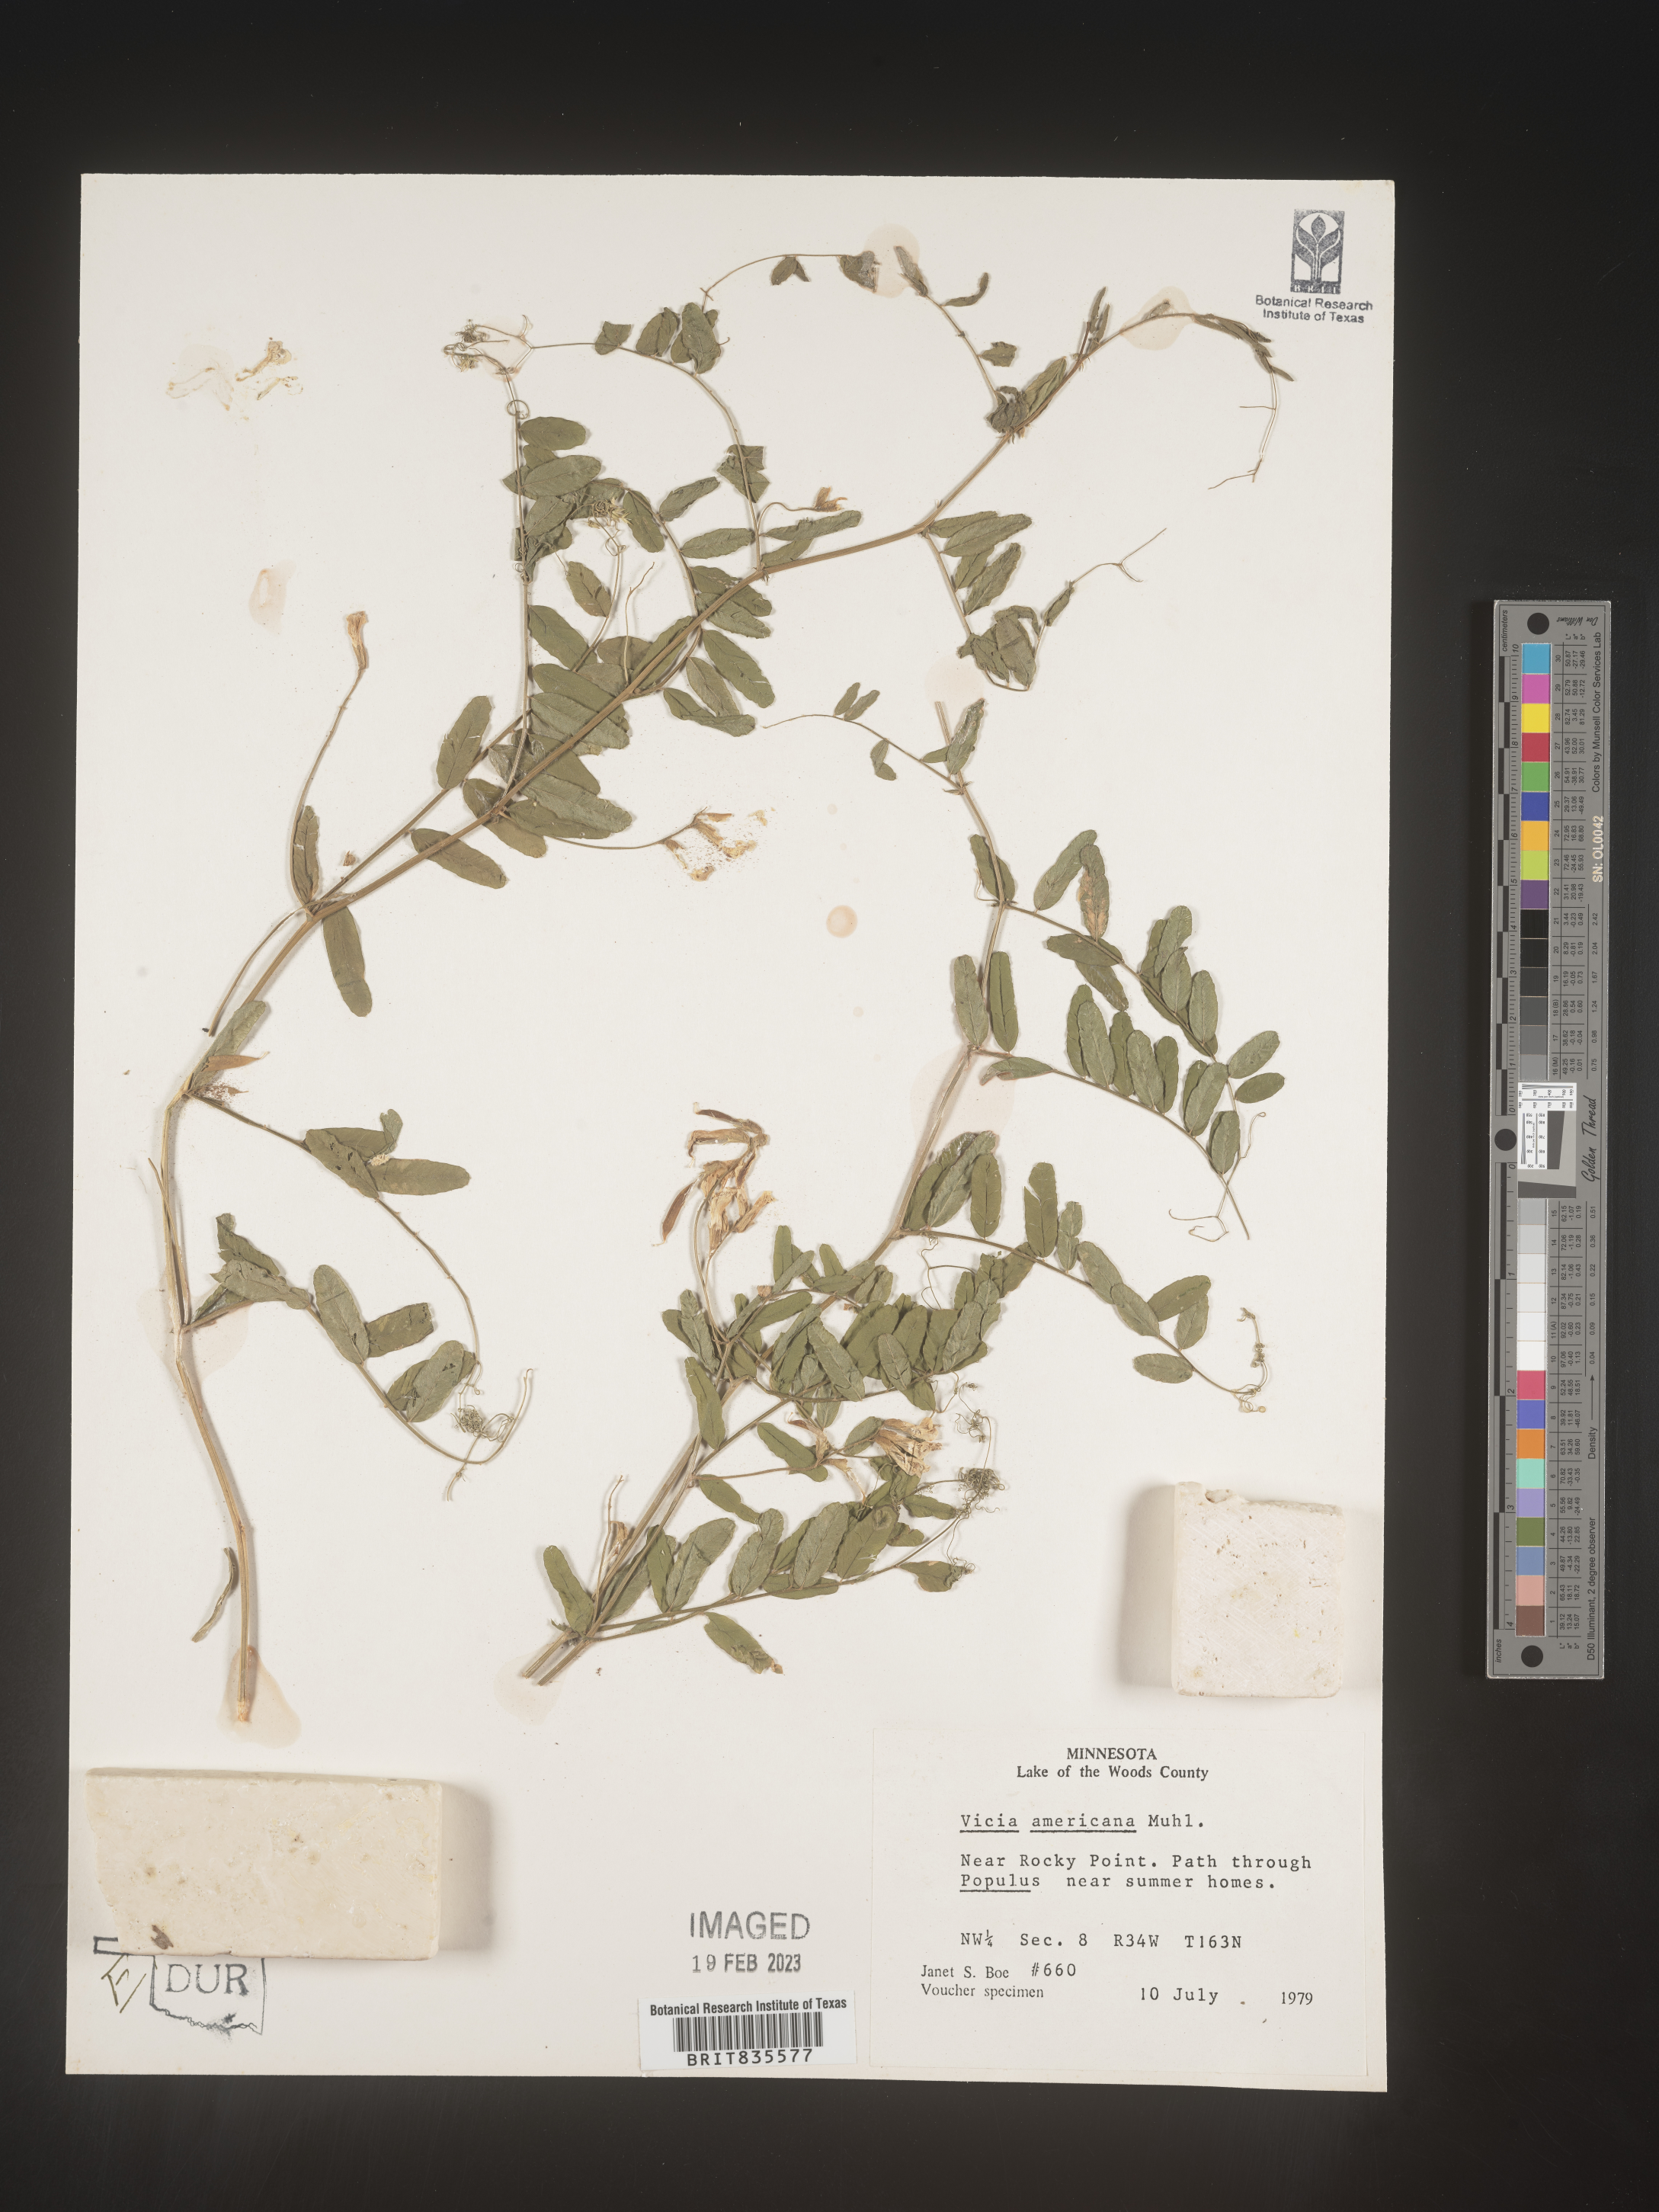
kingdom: Plantae
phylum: Tracheophyta
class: Magnoliopsida
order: Fabales
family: Fabaceae
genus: Vicia
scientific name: Vicia americana
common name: American vetch
